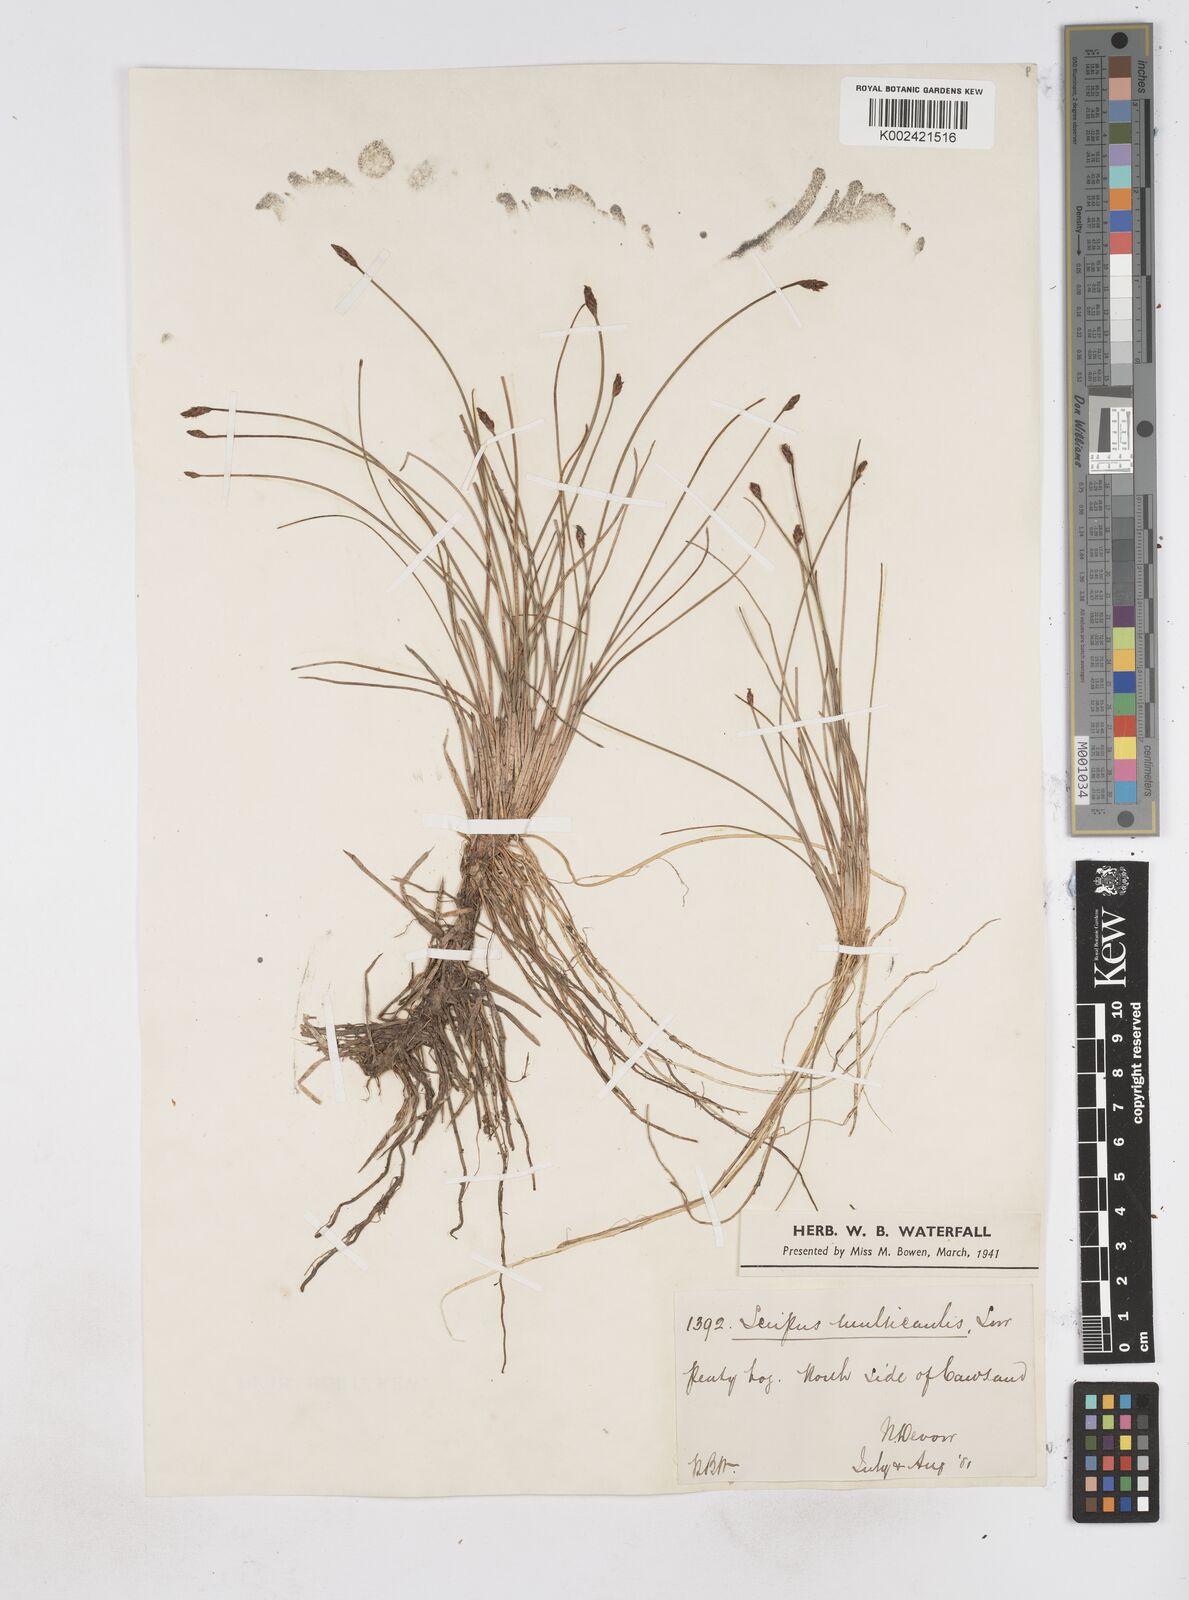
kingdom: Plantae
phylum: Tracheophyta
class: Liliopsida
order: Poales
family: Cyperaceae
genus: Eleocharis
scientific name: Eleocharis multicaulis
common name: Many-stalked spike-rush
